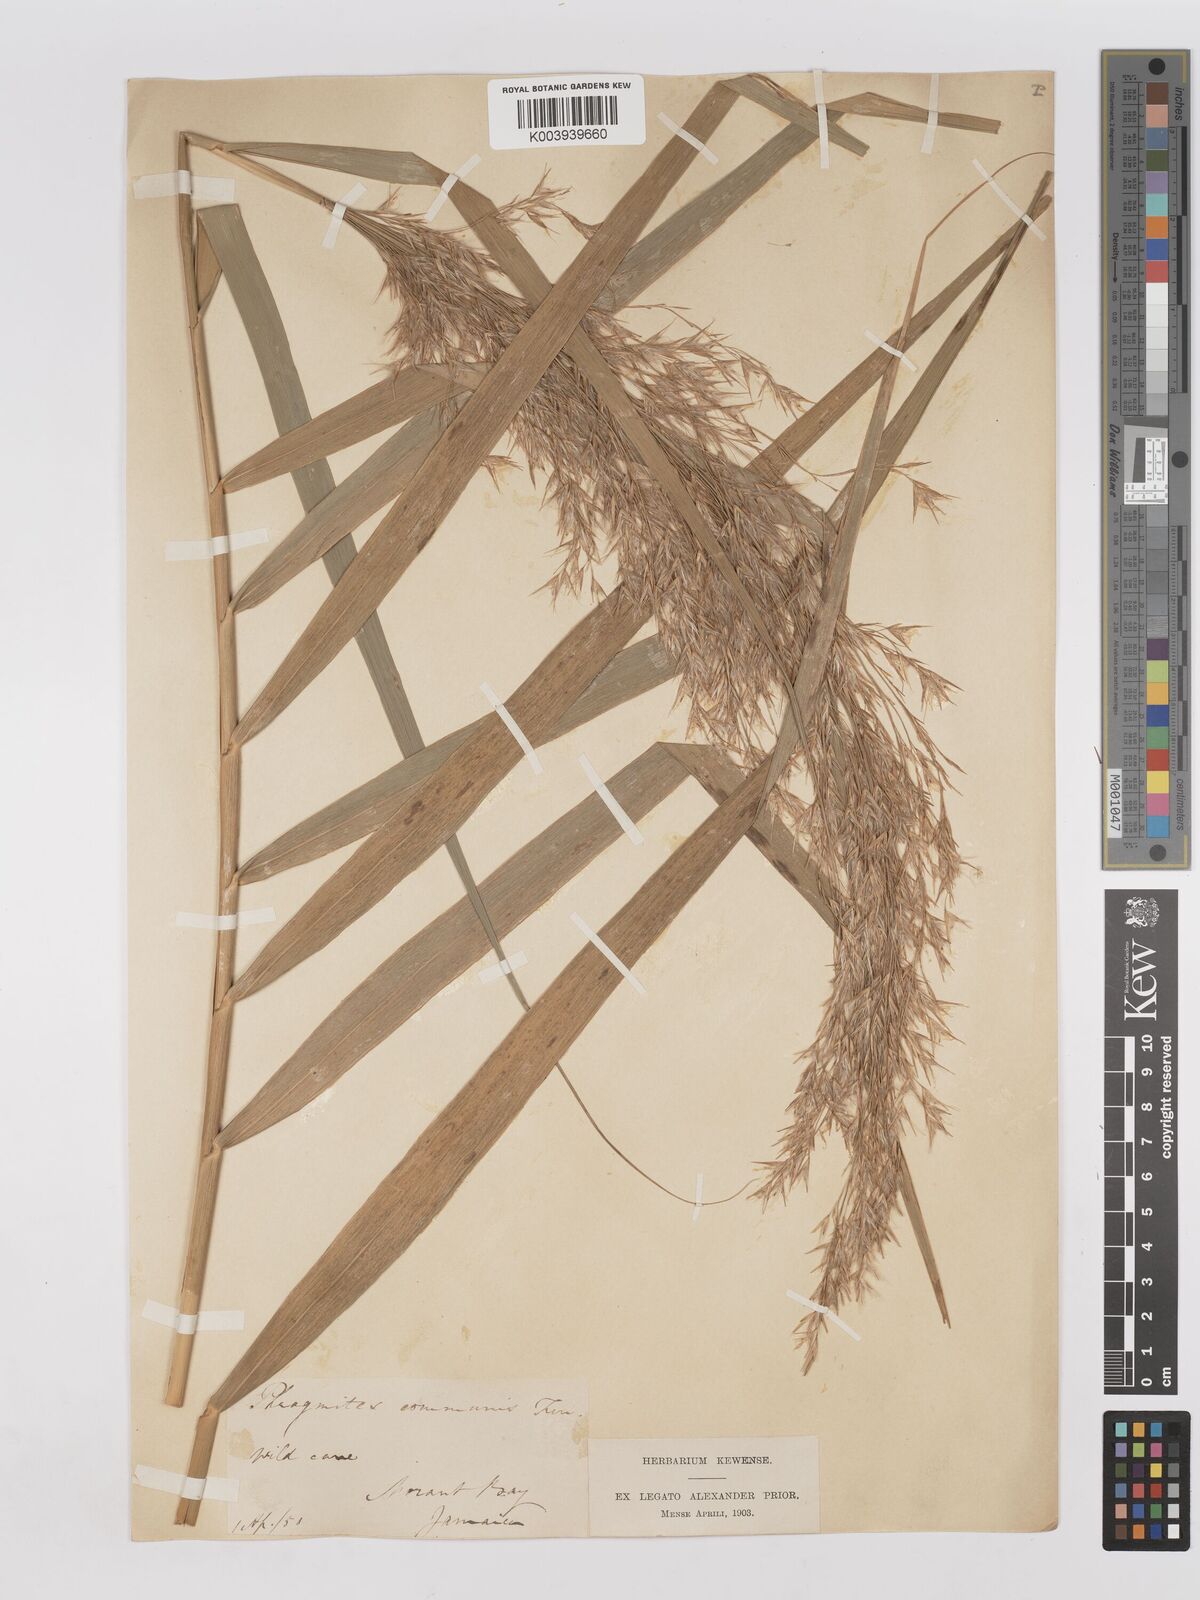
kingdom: Plantae
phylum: Tracheophyta
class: Liliopsida
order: Poales
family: Poaceae
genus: Phragmites
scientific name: Phragmites australis
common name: Common reed
